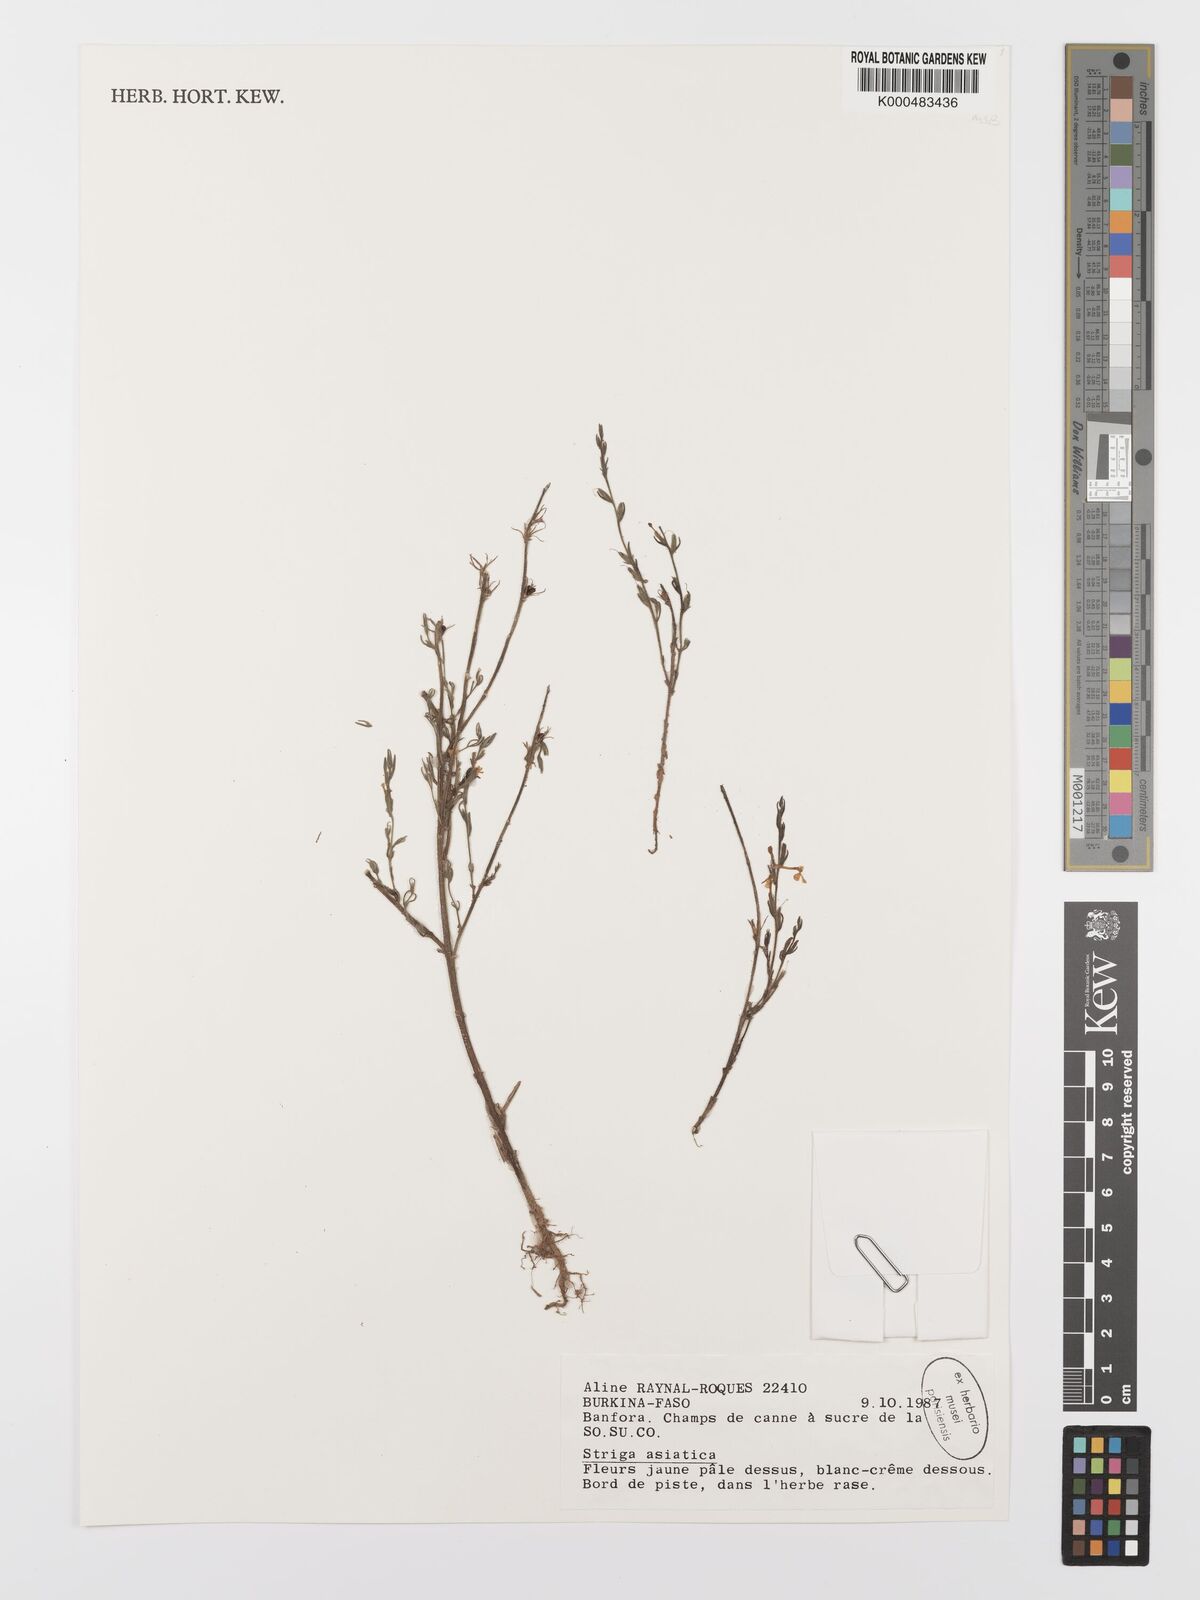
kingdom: Plantae
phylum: Tracheophyta
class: Magnoliopsida
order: Lamiales
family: Orobanchaceae
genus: Striga
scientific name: Striga asiatica
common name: Asiatic witchweed
